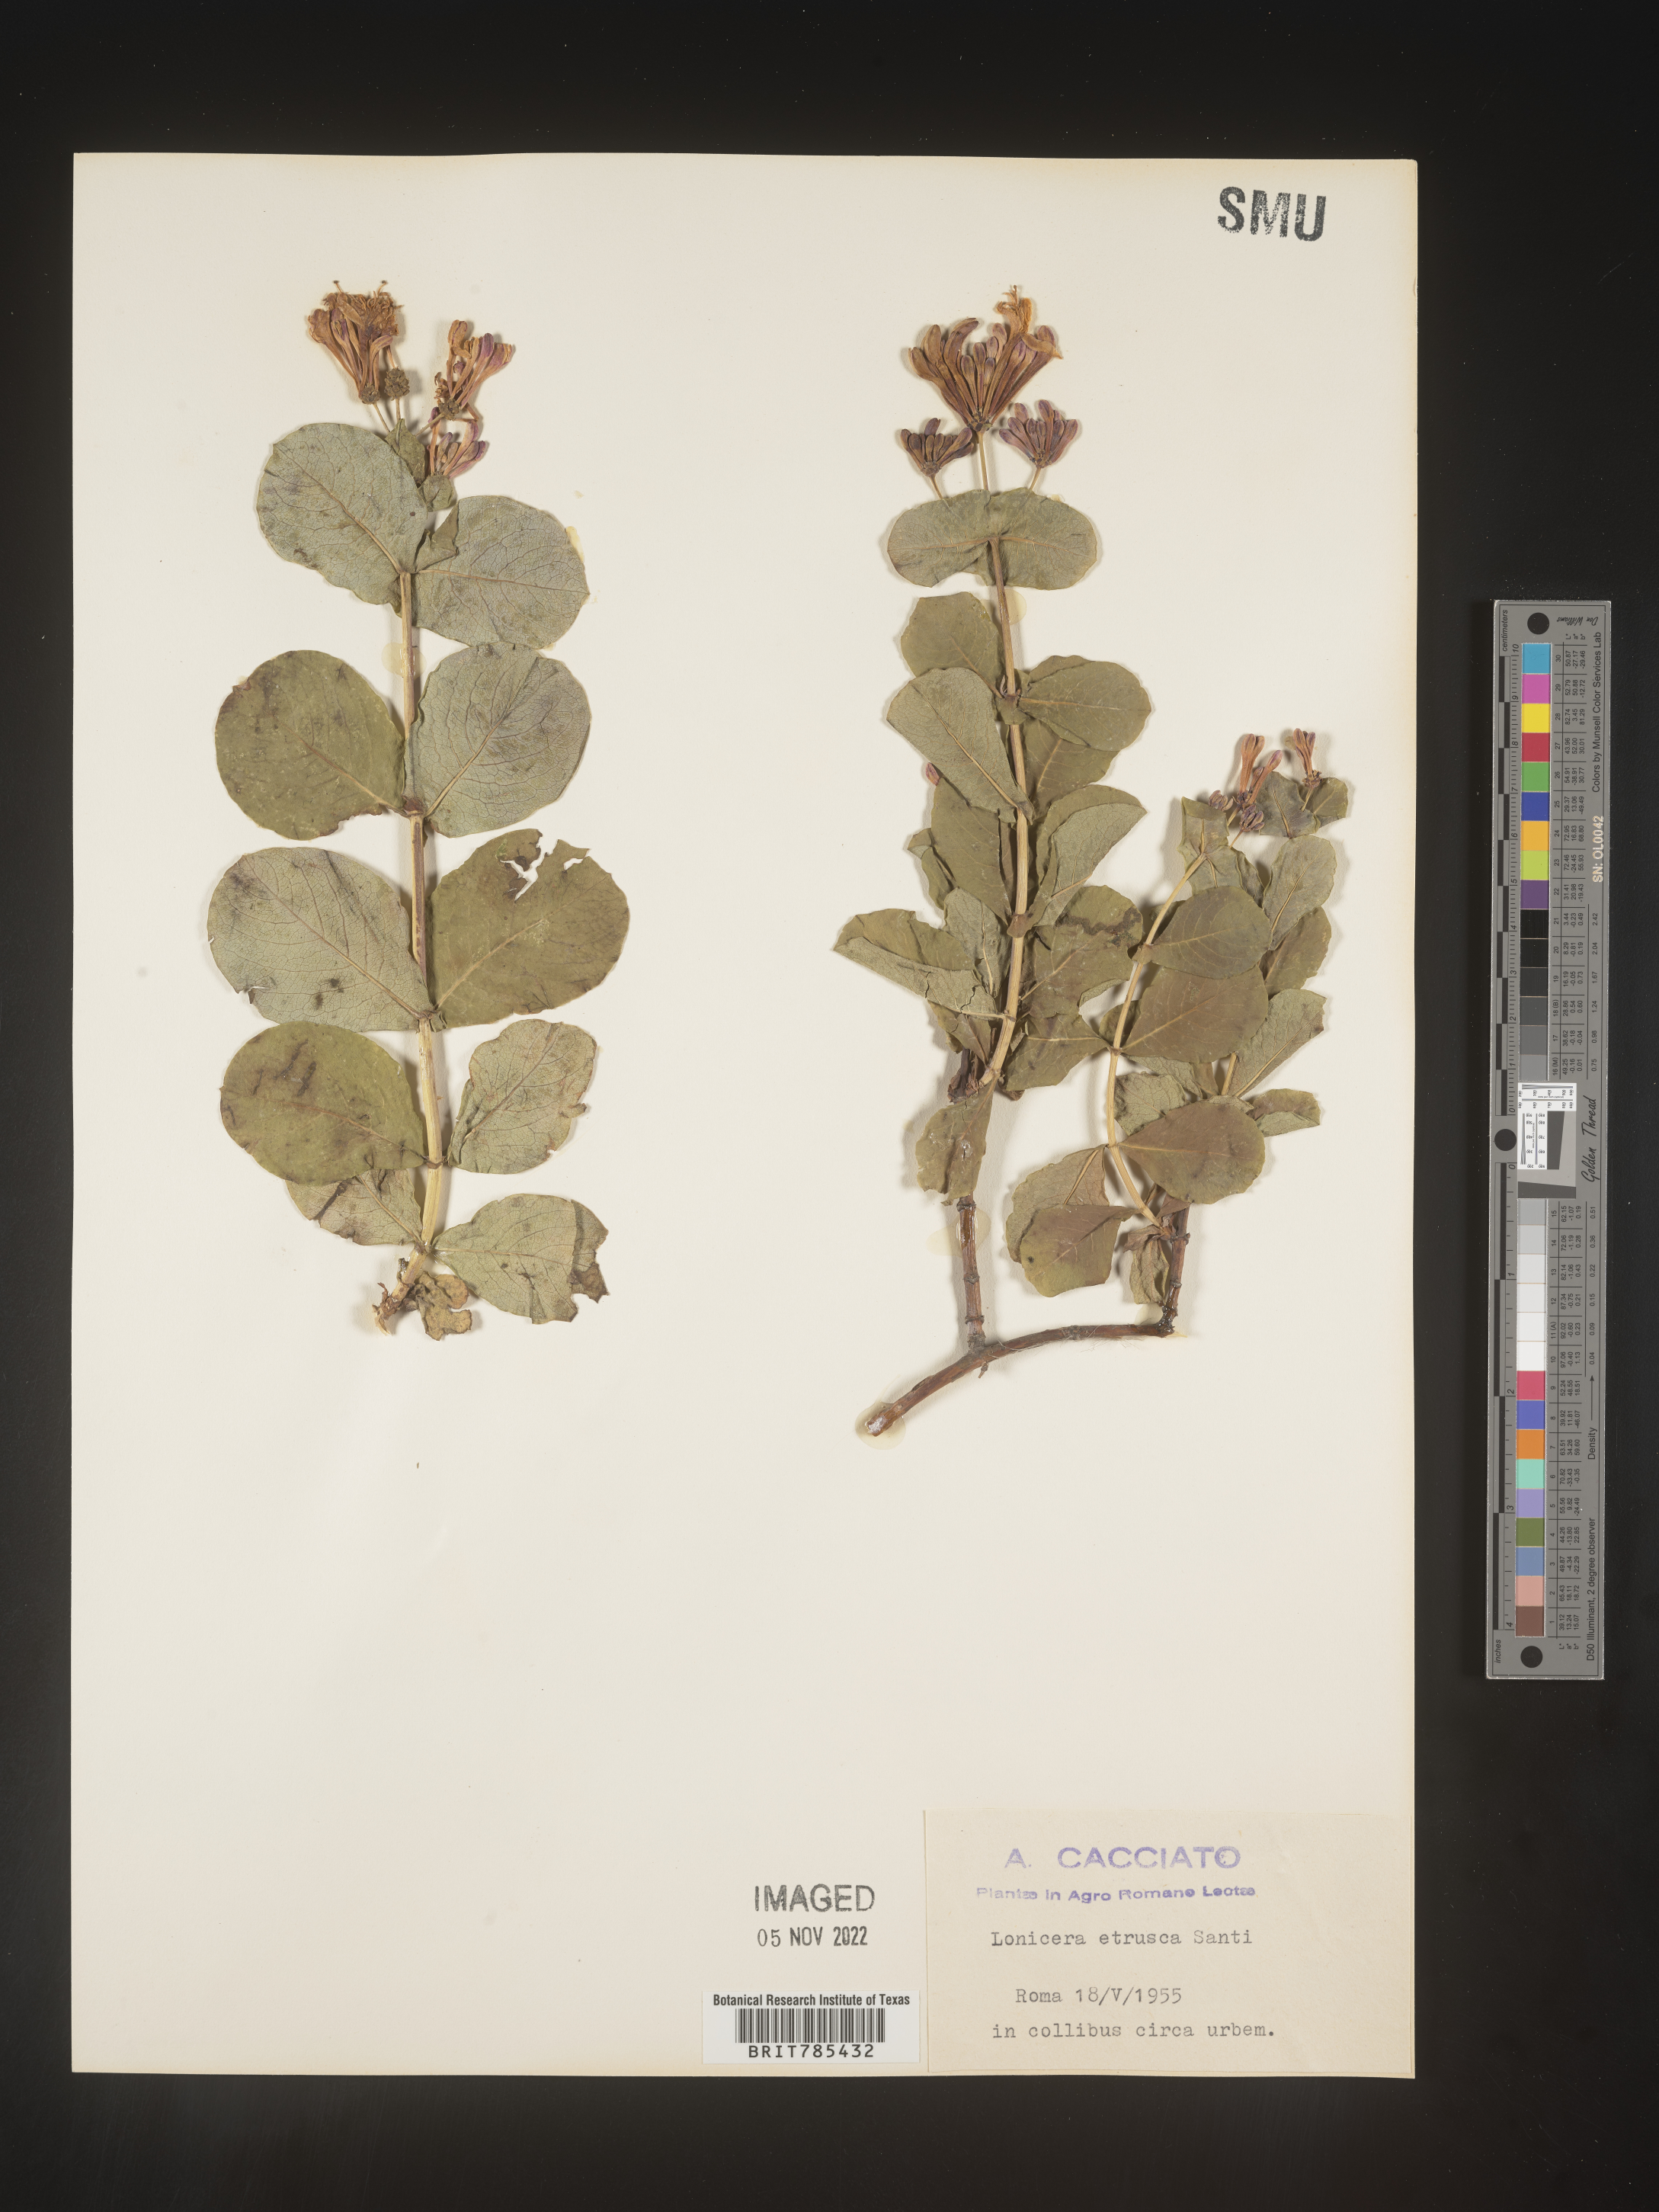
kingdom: Plantae
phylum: Tracheophyta
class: Magnoliopsida
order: Dipsacales
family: Caprifoliaceae
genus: Lonicera
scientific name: Lonicera
